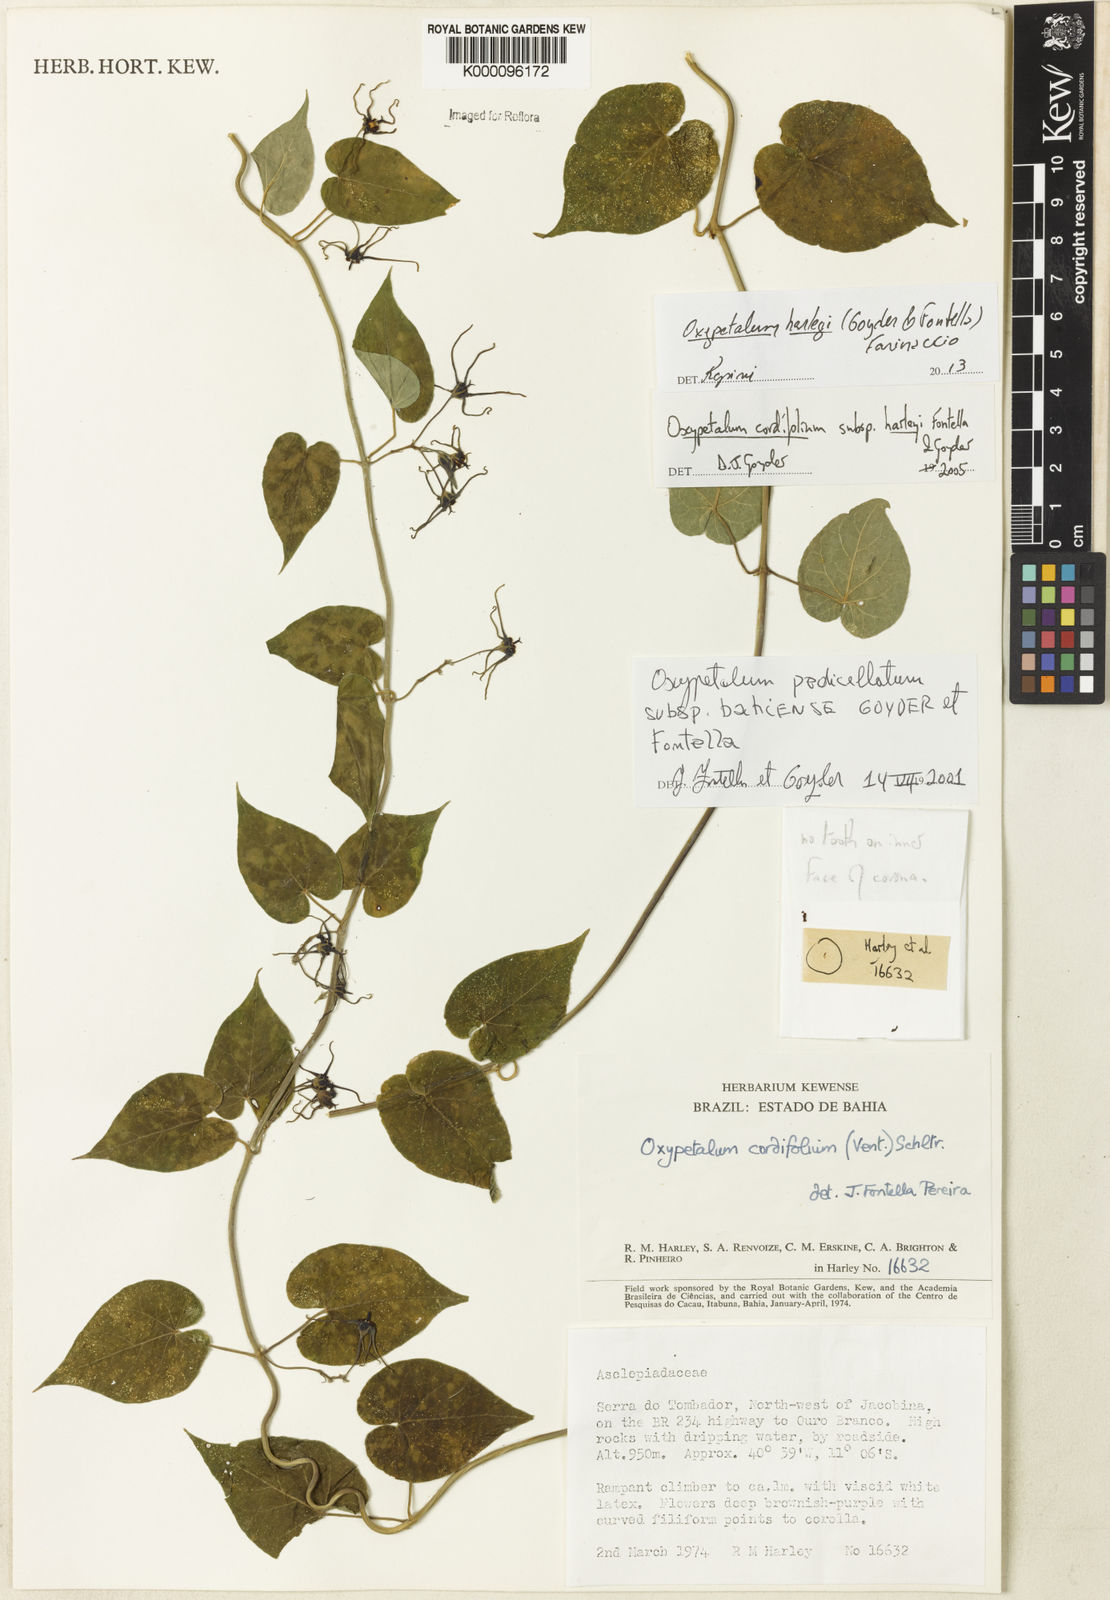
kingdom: Plantae
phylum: Tracheophyta
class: Magnoliopsida
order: Gentianales
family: Apocynaceae
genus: Oxypetalum
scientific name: Oxypetalum harleyi
